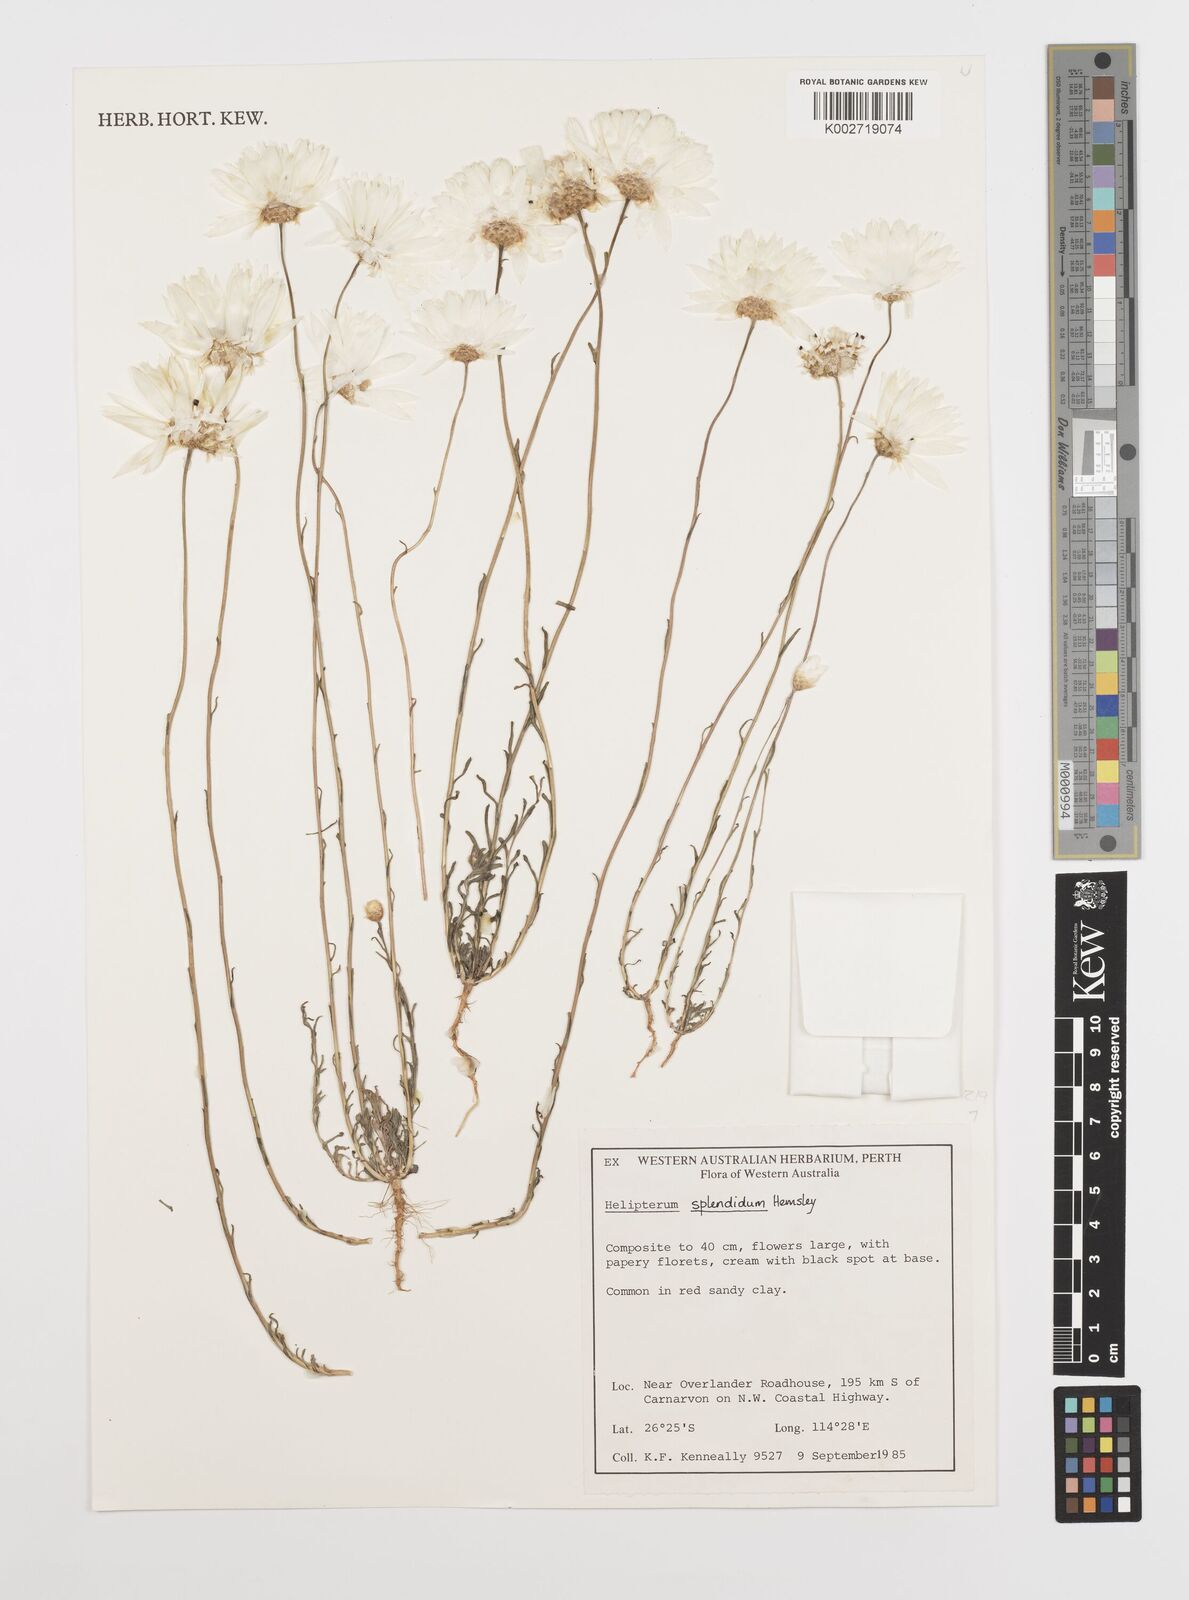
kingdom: Plantae
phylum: Tracheophyta
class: Magnoliopsida
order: Asterales
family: Asteraceae
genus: Rhodanthe
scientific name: Rhodanthe chlorocephala
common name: Rosy sunray
